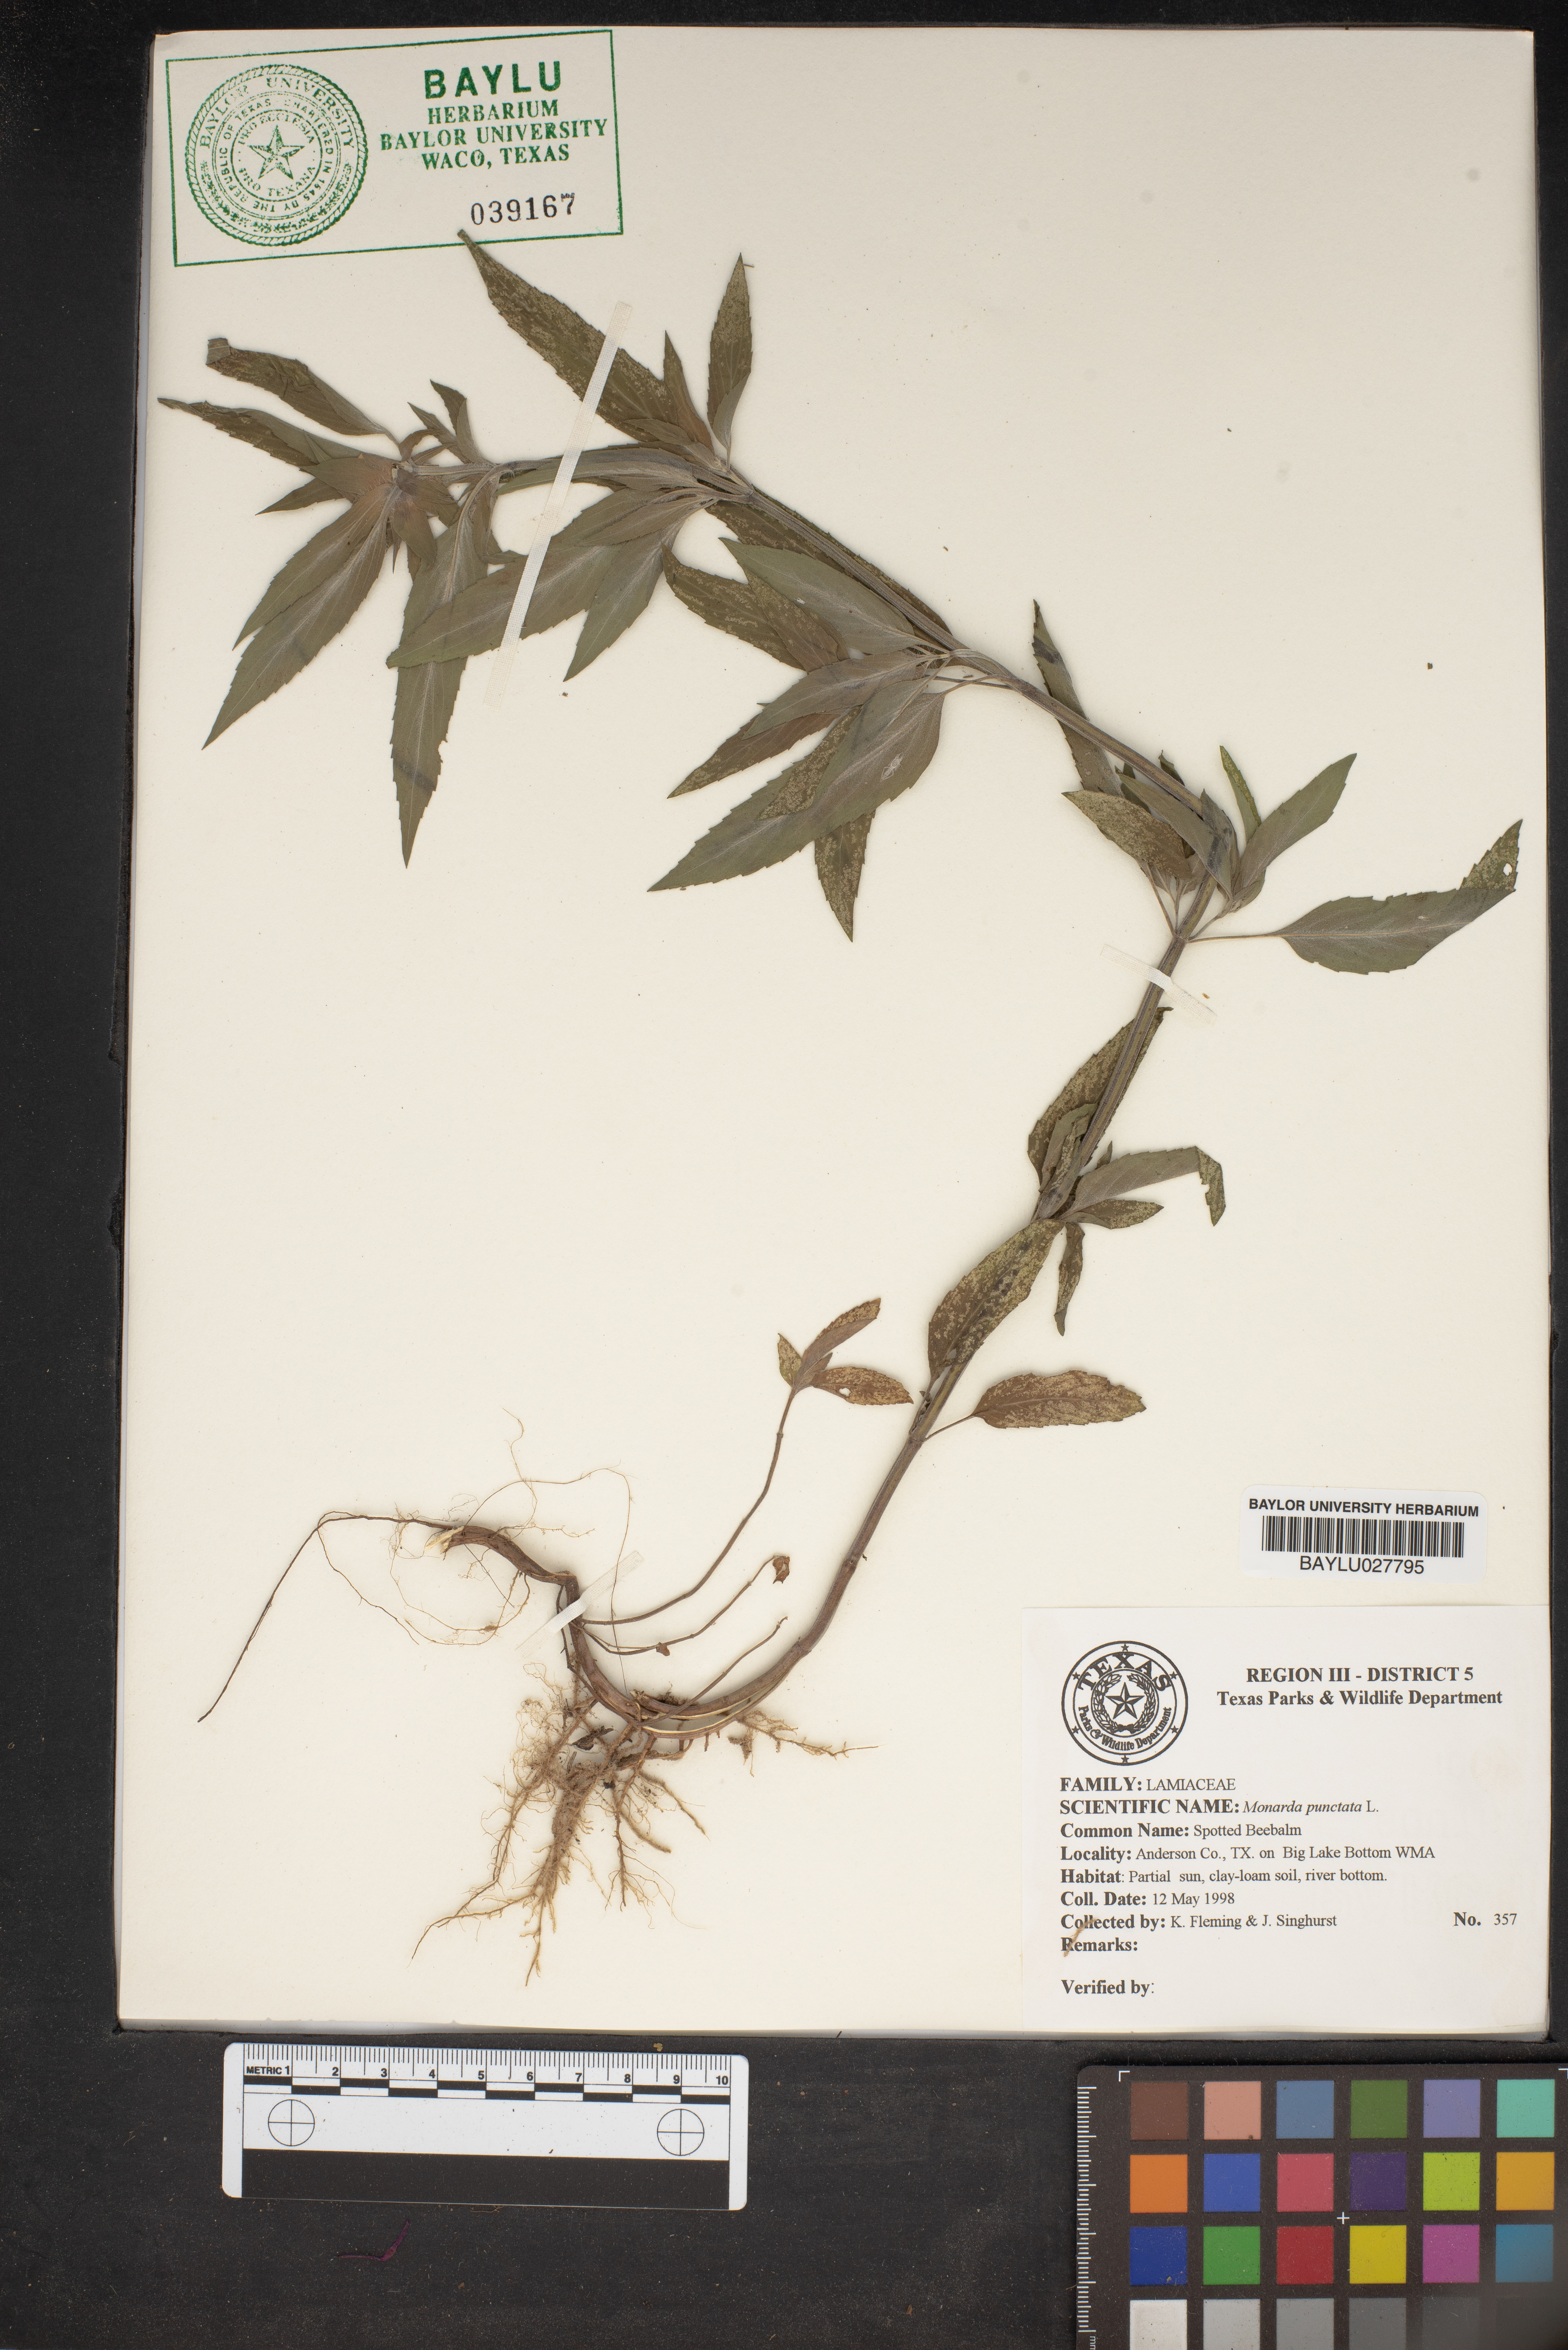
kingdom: Plantae
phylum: Tracheophyta
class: Magnoliopsida
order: Lamiales
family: Lamiaceae
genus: Monarda
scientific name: Monarda punctata
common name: Dotted monarda
